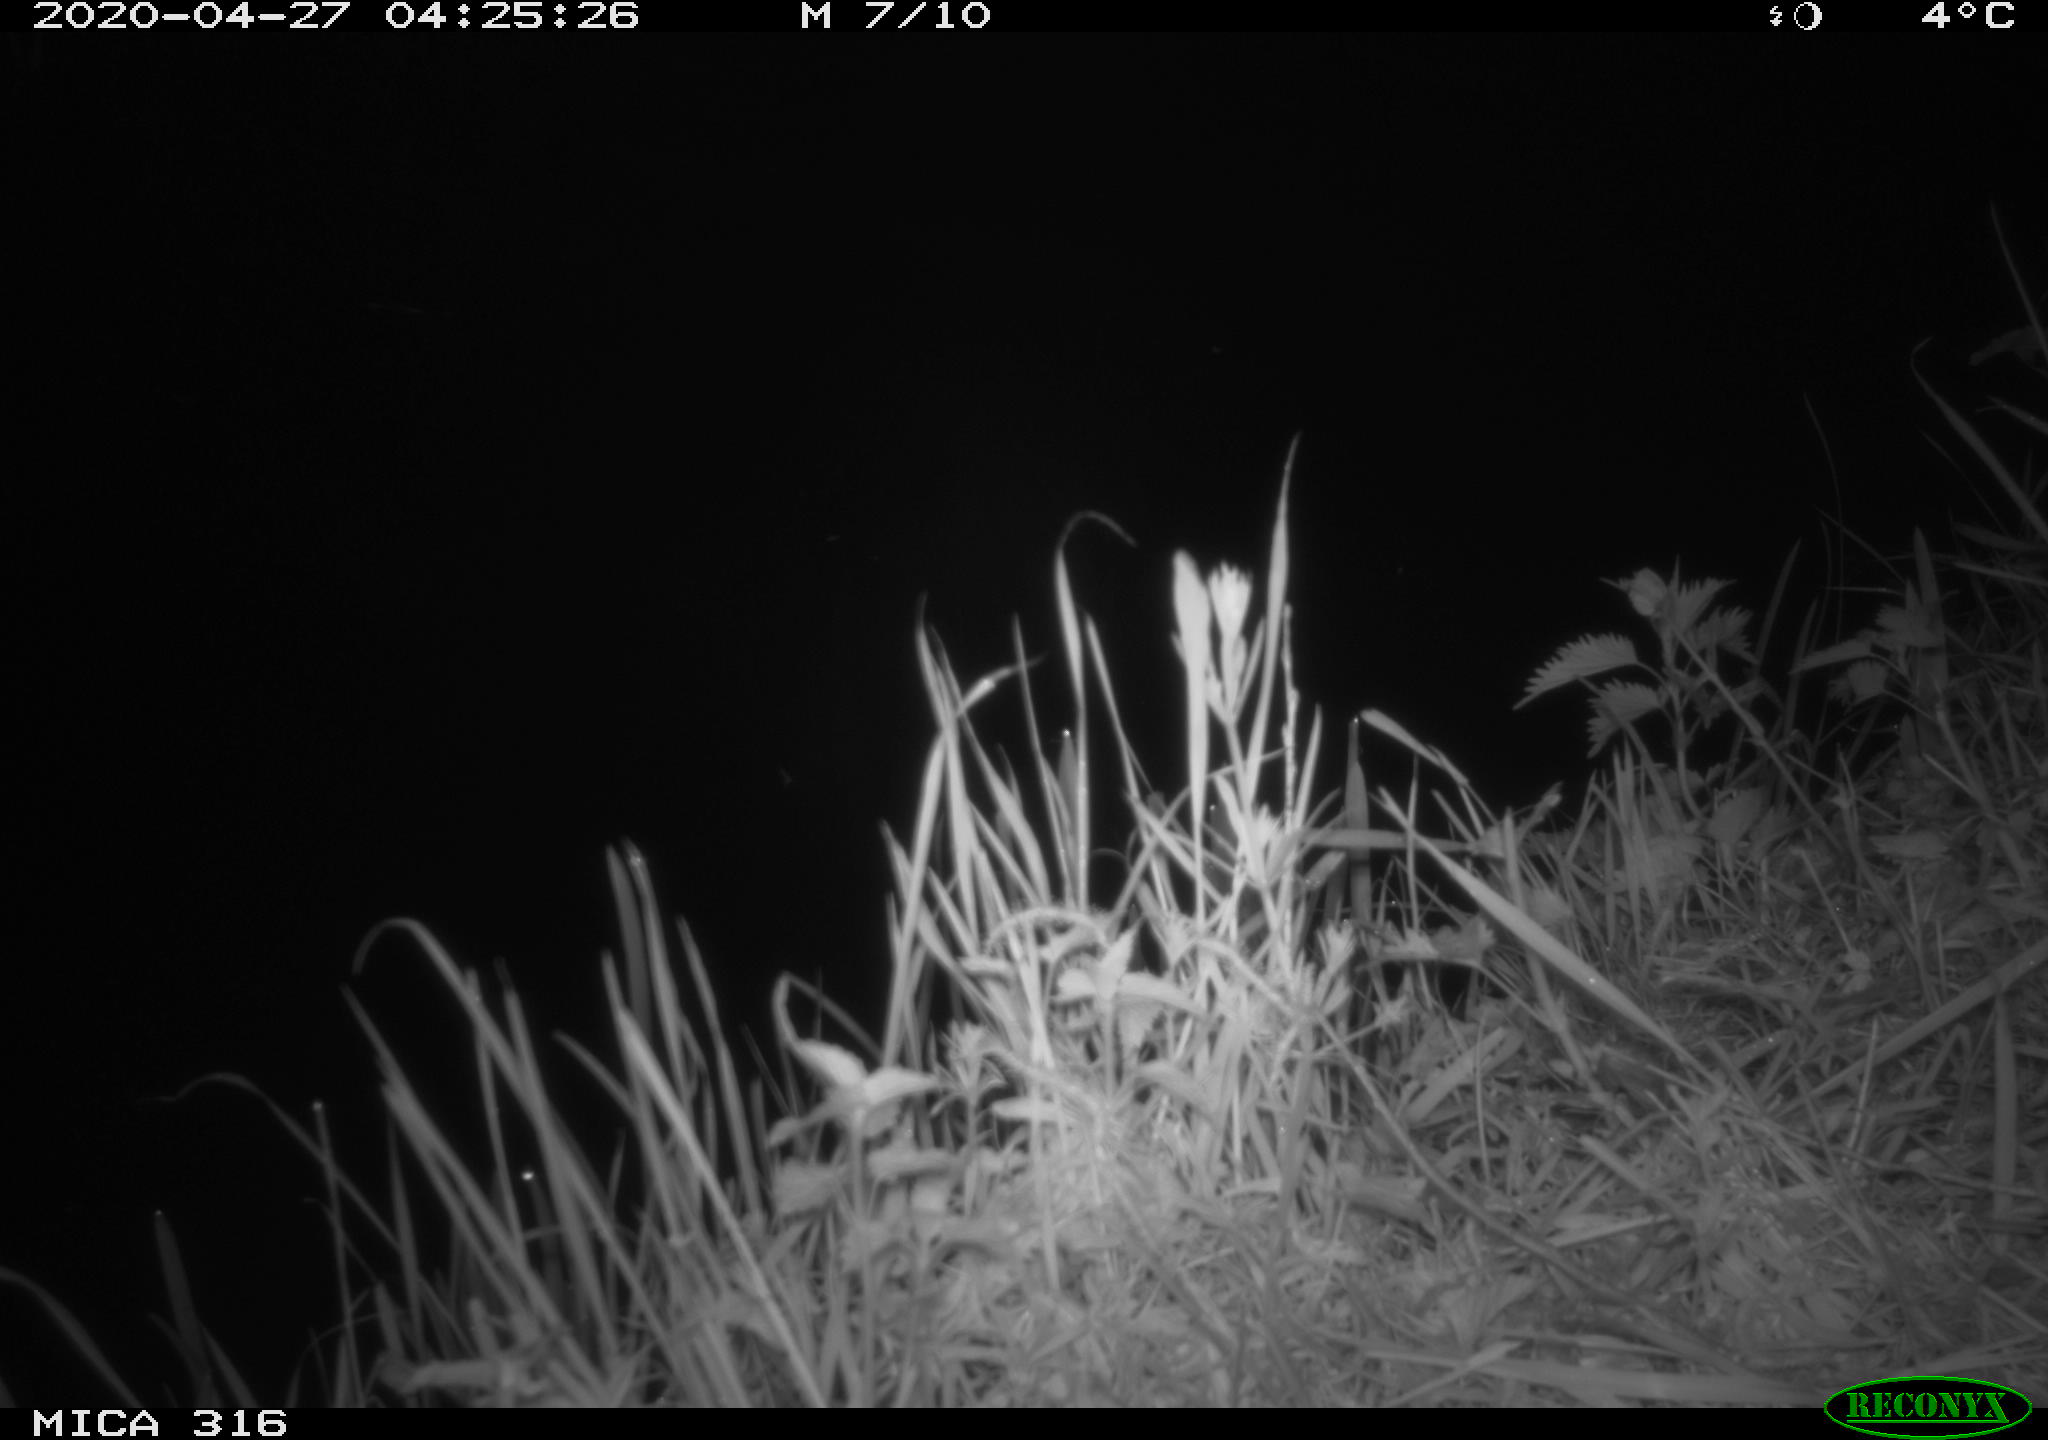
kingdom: Animalia
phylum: Chordata
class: Aves
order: Anseriformes
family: Anatidae
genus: Anas
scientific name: Anas platyrhynchos
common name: Mallard
